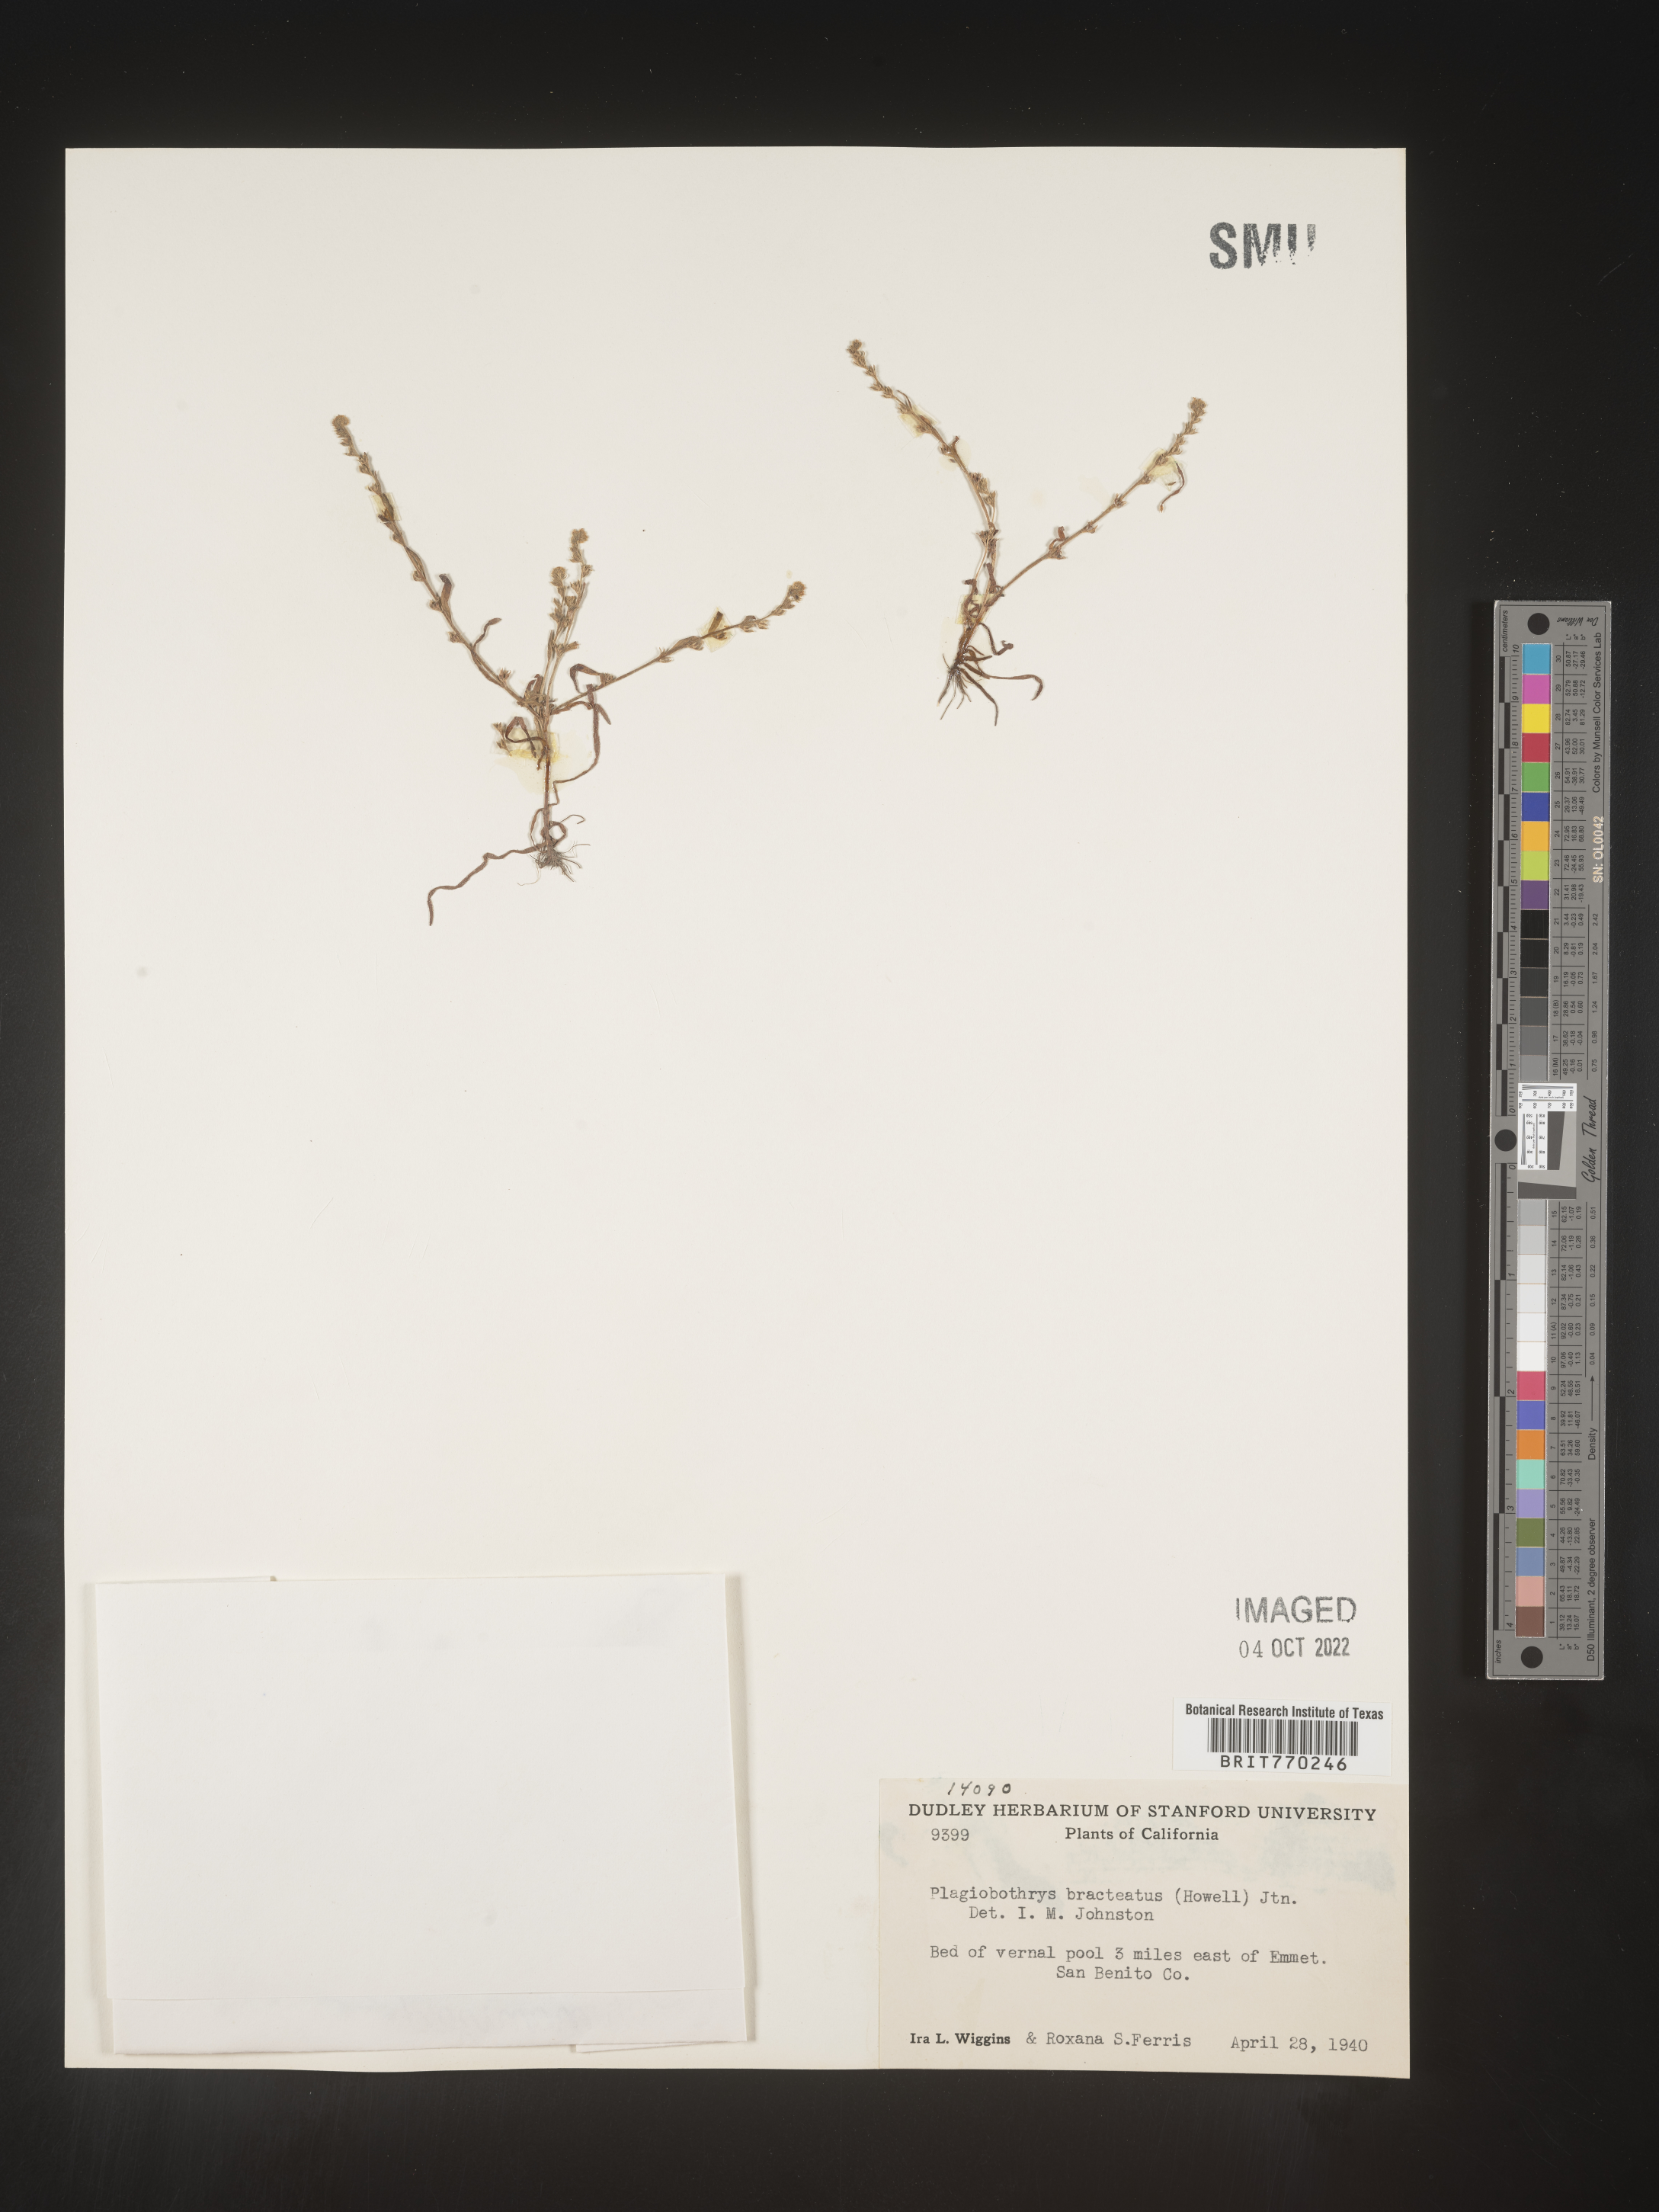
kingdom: Plantae
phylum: Tracheophyta
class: Magnoliopsida
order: Boraginales
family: Boraginaceae
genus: Plagiobothrys
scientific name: Plagiobothrys
